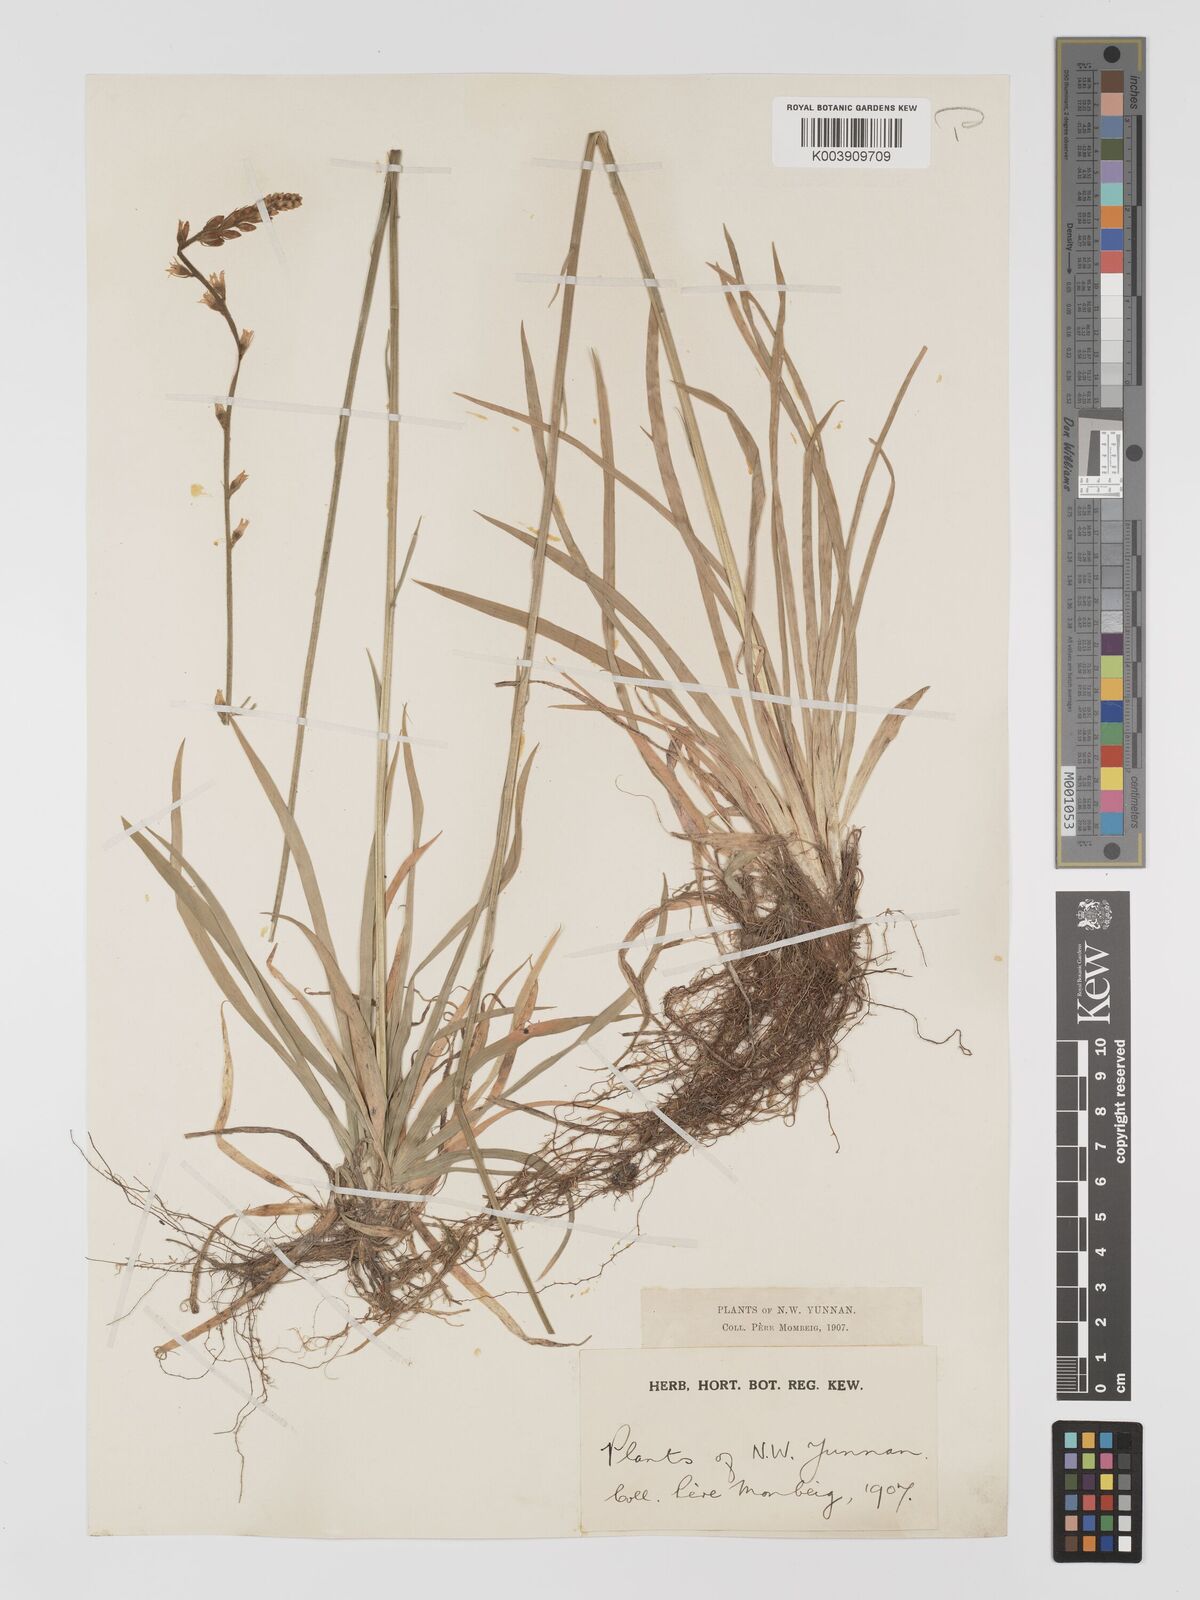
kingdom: Plantae
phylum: Tracheophyta
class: Liliopsida
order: Dioscoreales
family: Nartheciaceae
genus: Aletris
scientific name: Aletris pauciflora
